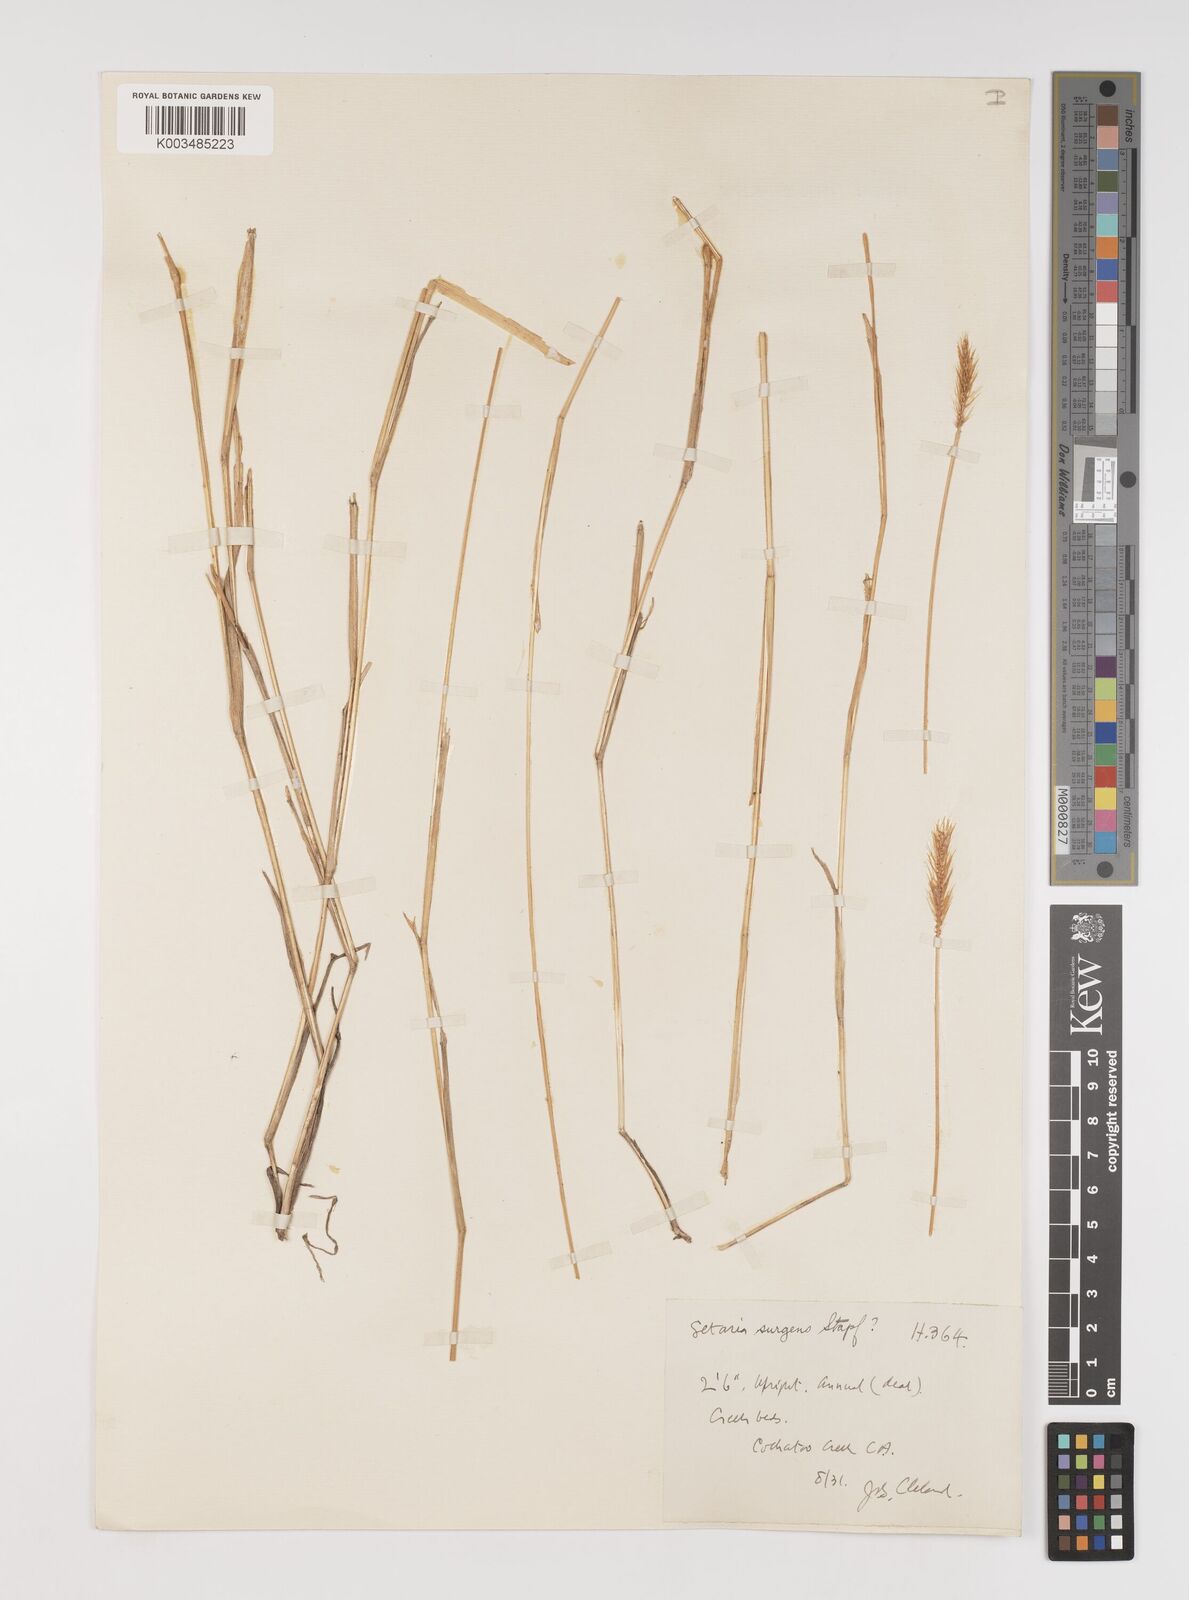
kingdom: Plantae
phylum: Tracheophyta
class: Liliopsida
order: Poales
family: Poaceae
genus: Setaria
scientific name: Setaria surgens
